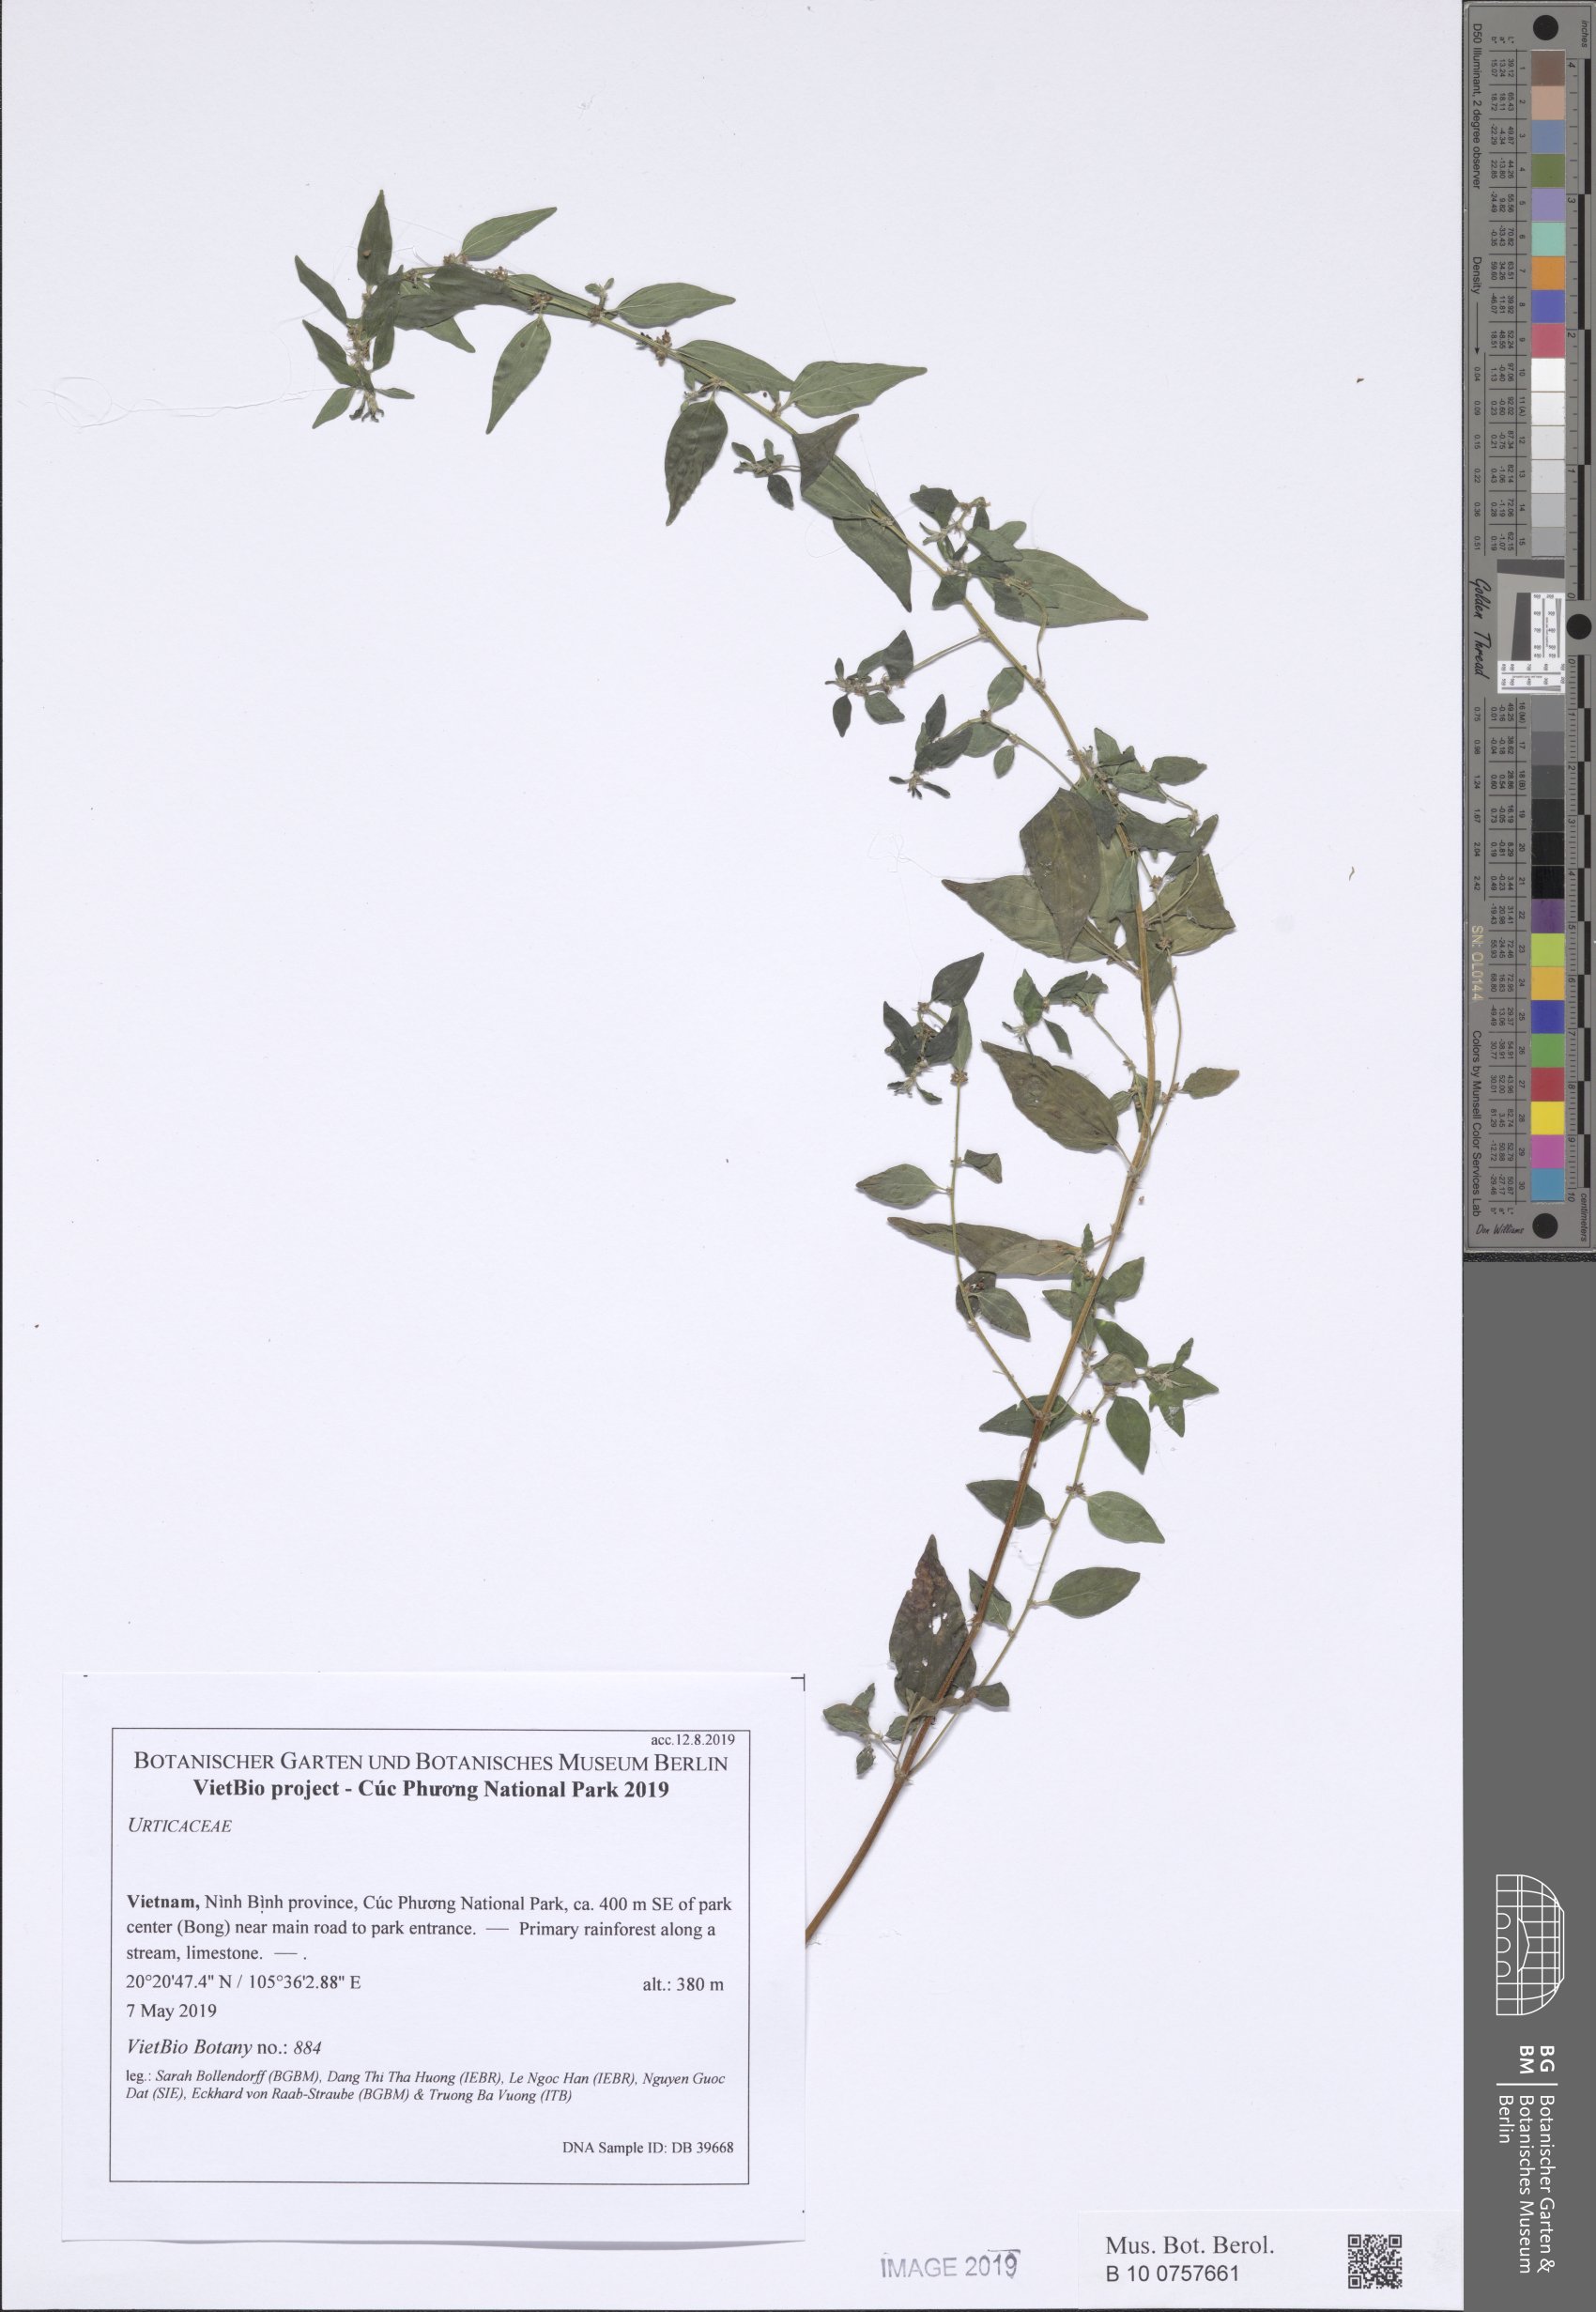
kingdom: Plantae
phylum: Tracheophyta
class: Magnoliopsida
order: Rosales
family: Urticaceae
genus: Pouzolzia
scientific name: Pouzolzia zeylanica
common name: Graceful pouzolzsbush
